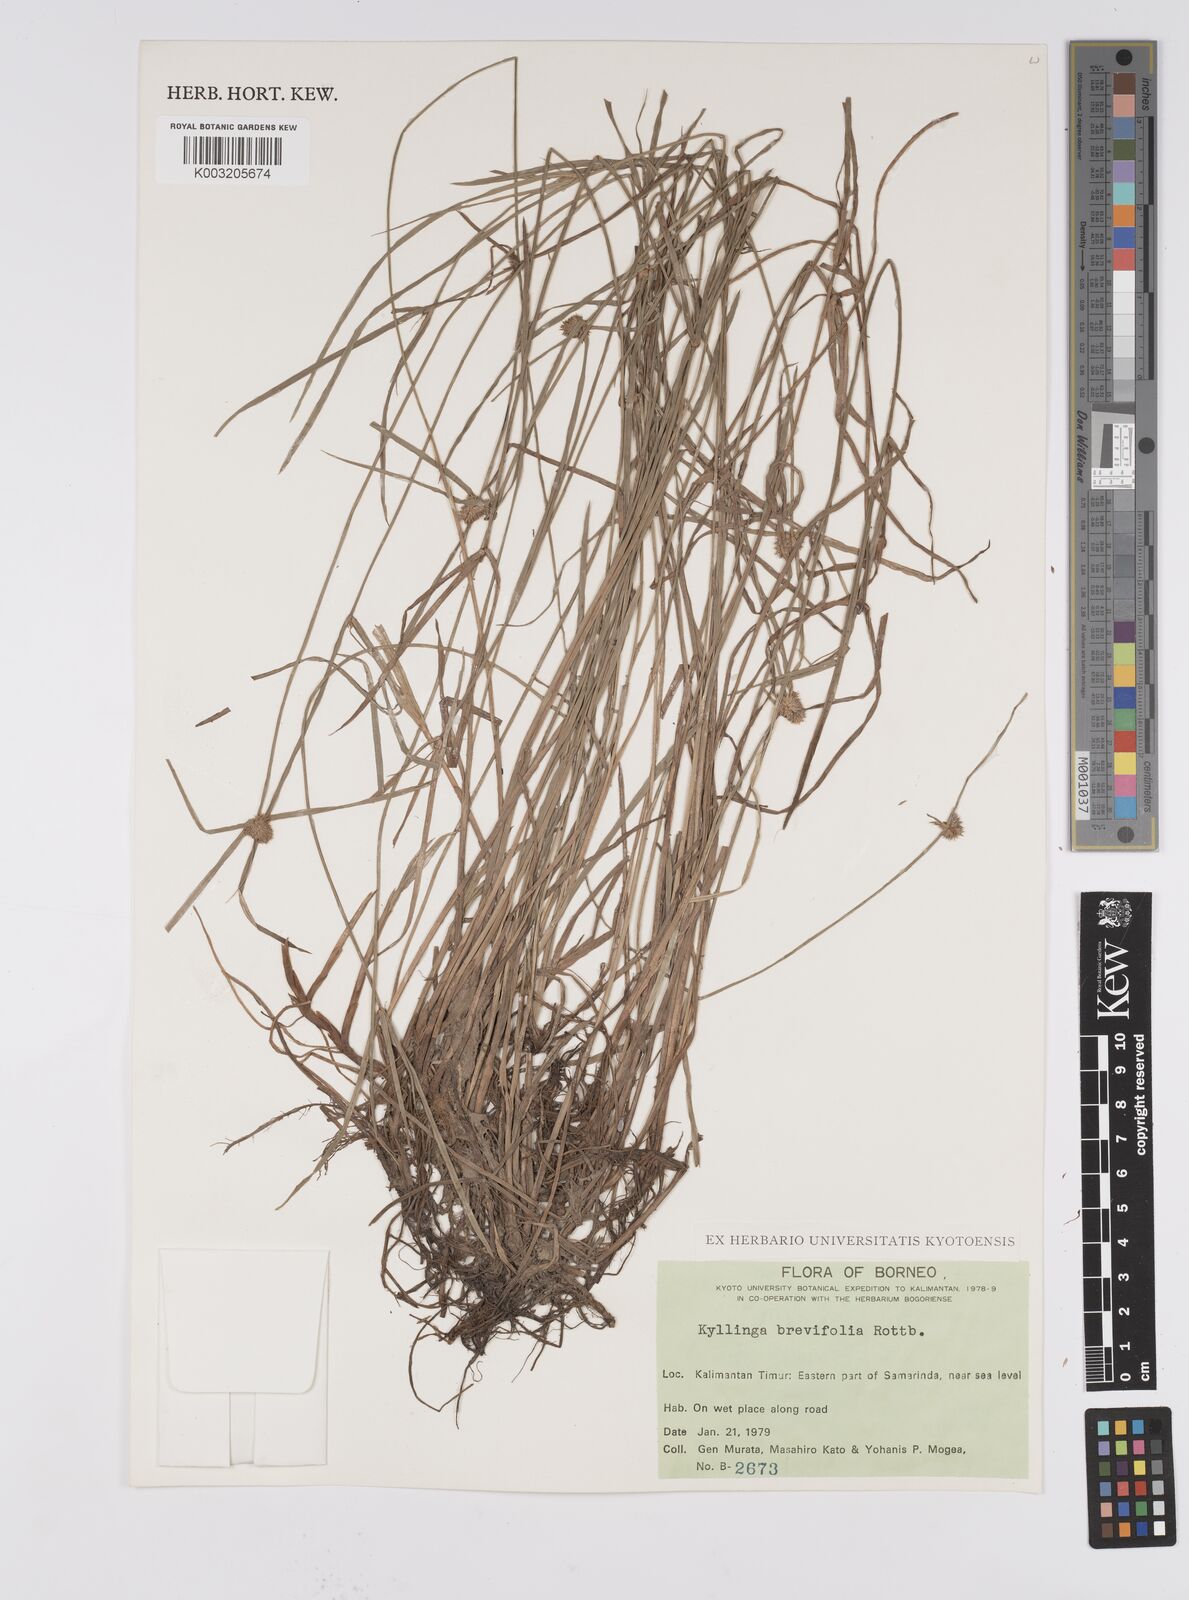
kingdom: Plantae
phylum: Tracheophyta
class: Liliopsida
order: Poales
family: Cyperaceae
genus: Cyperus
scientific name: Cyperus brevifolius
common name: Globe kyllinga
